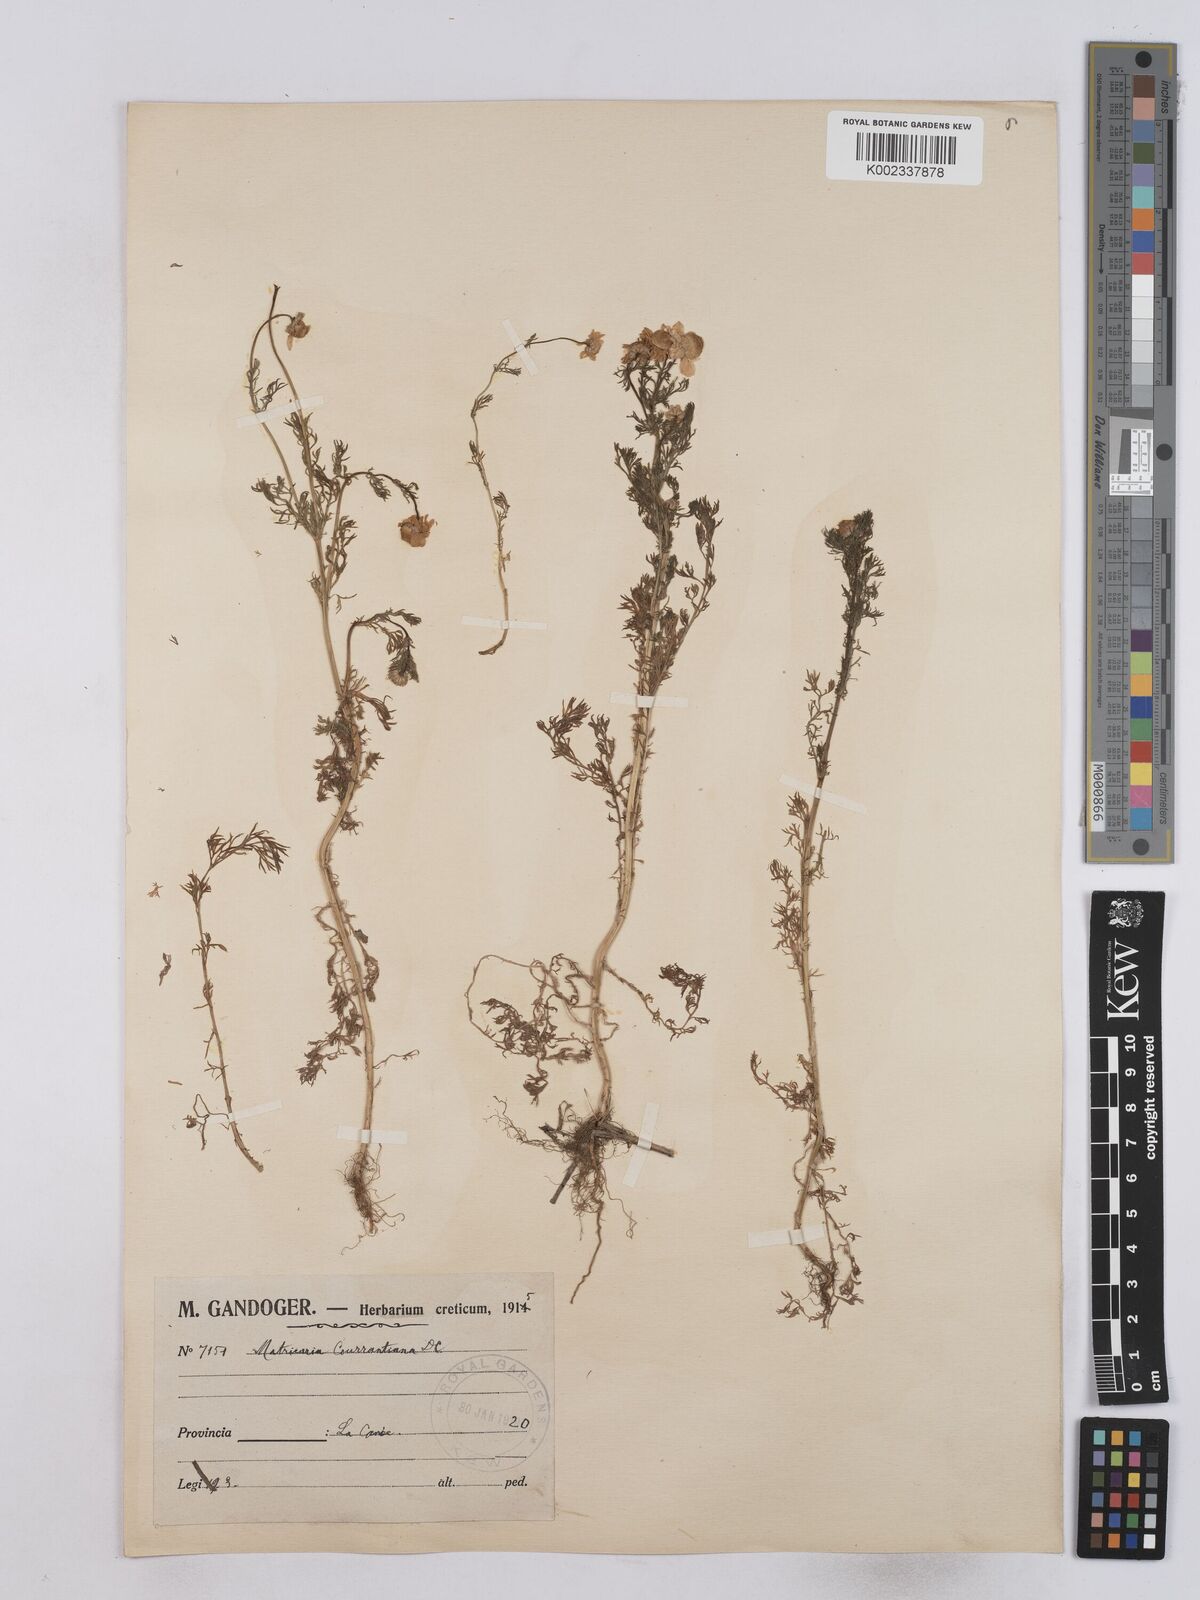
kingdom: Plantae
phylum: Tracheophyta
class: Magnoliopsida
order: Asterales
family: Asteraceae
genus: Matricaria
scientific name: Matricaria chamomilla
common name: Scented mayweed
